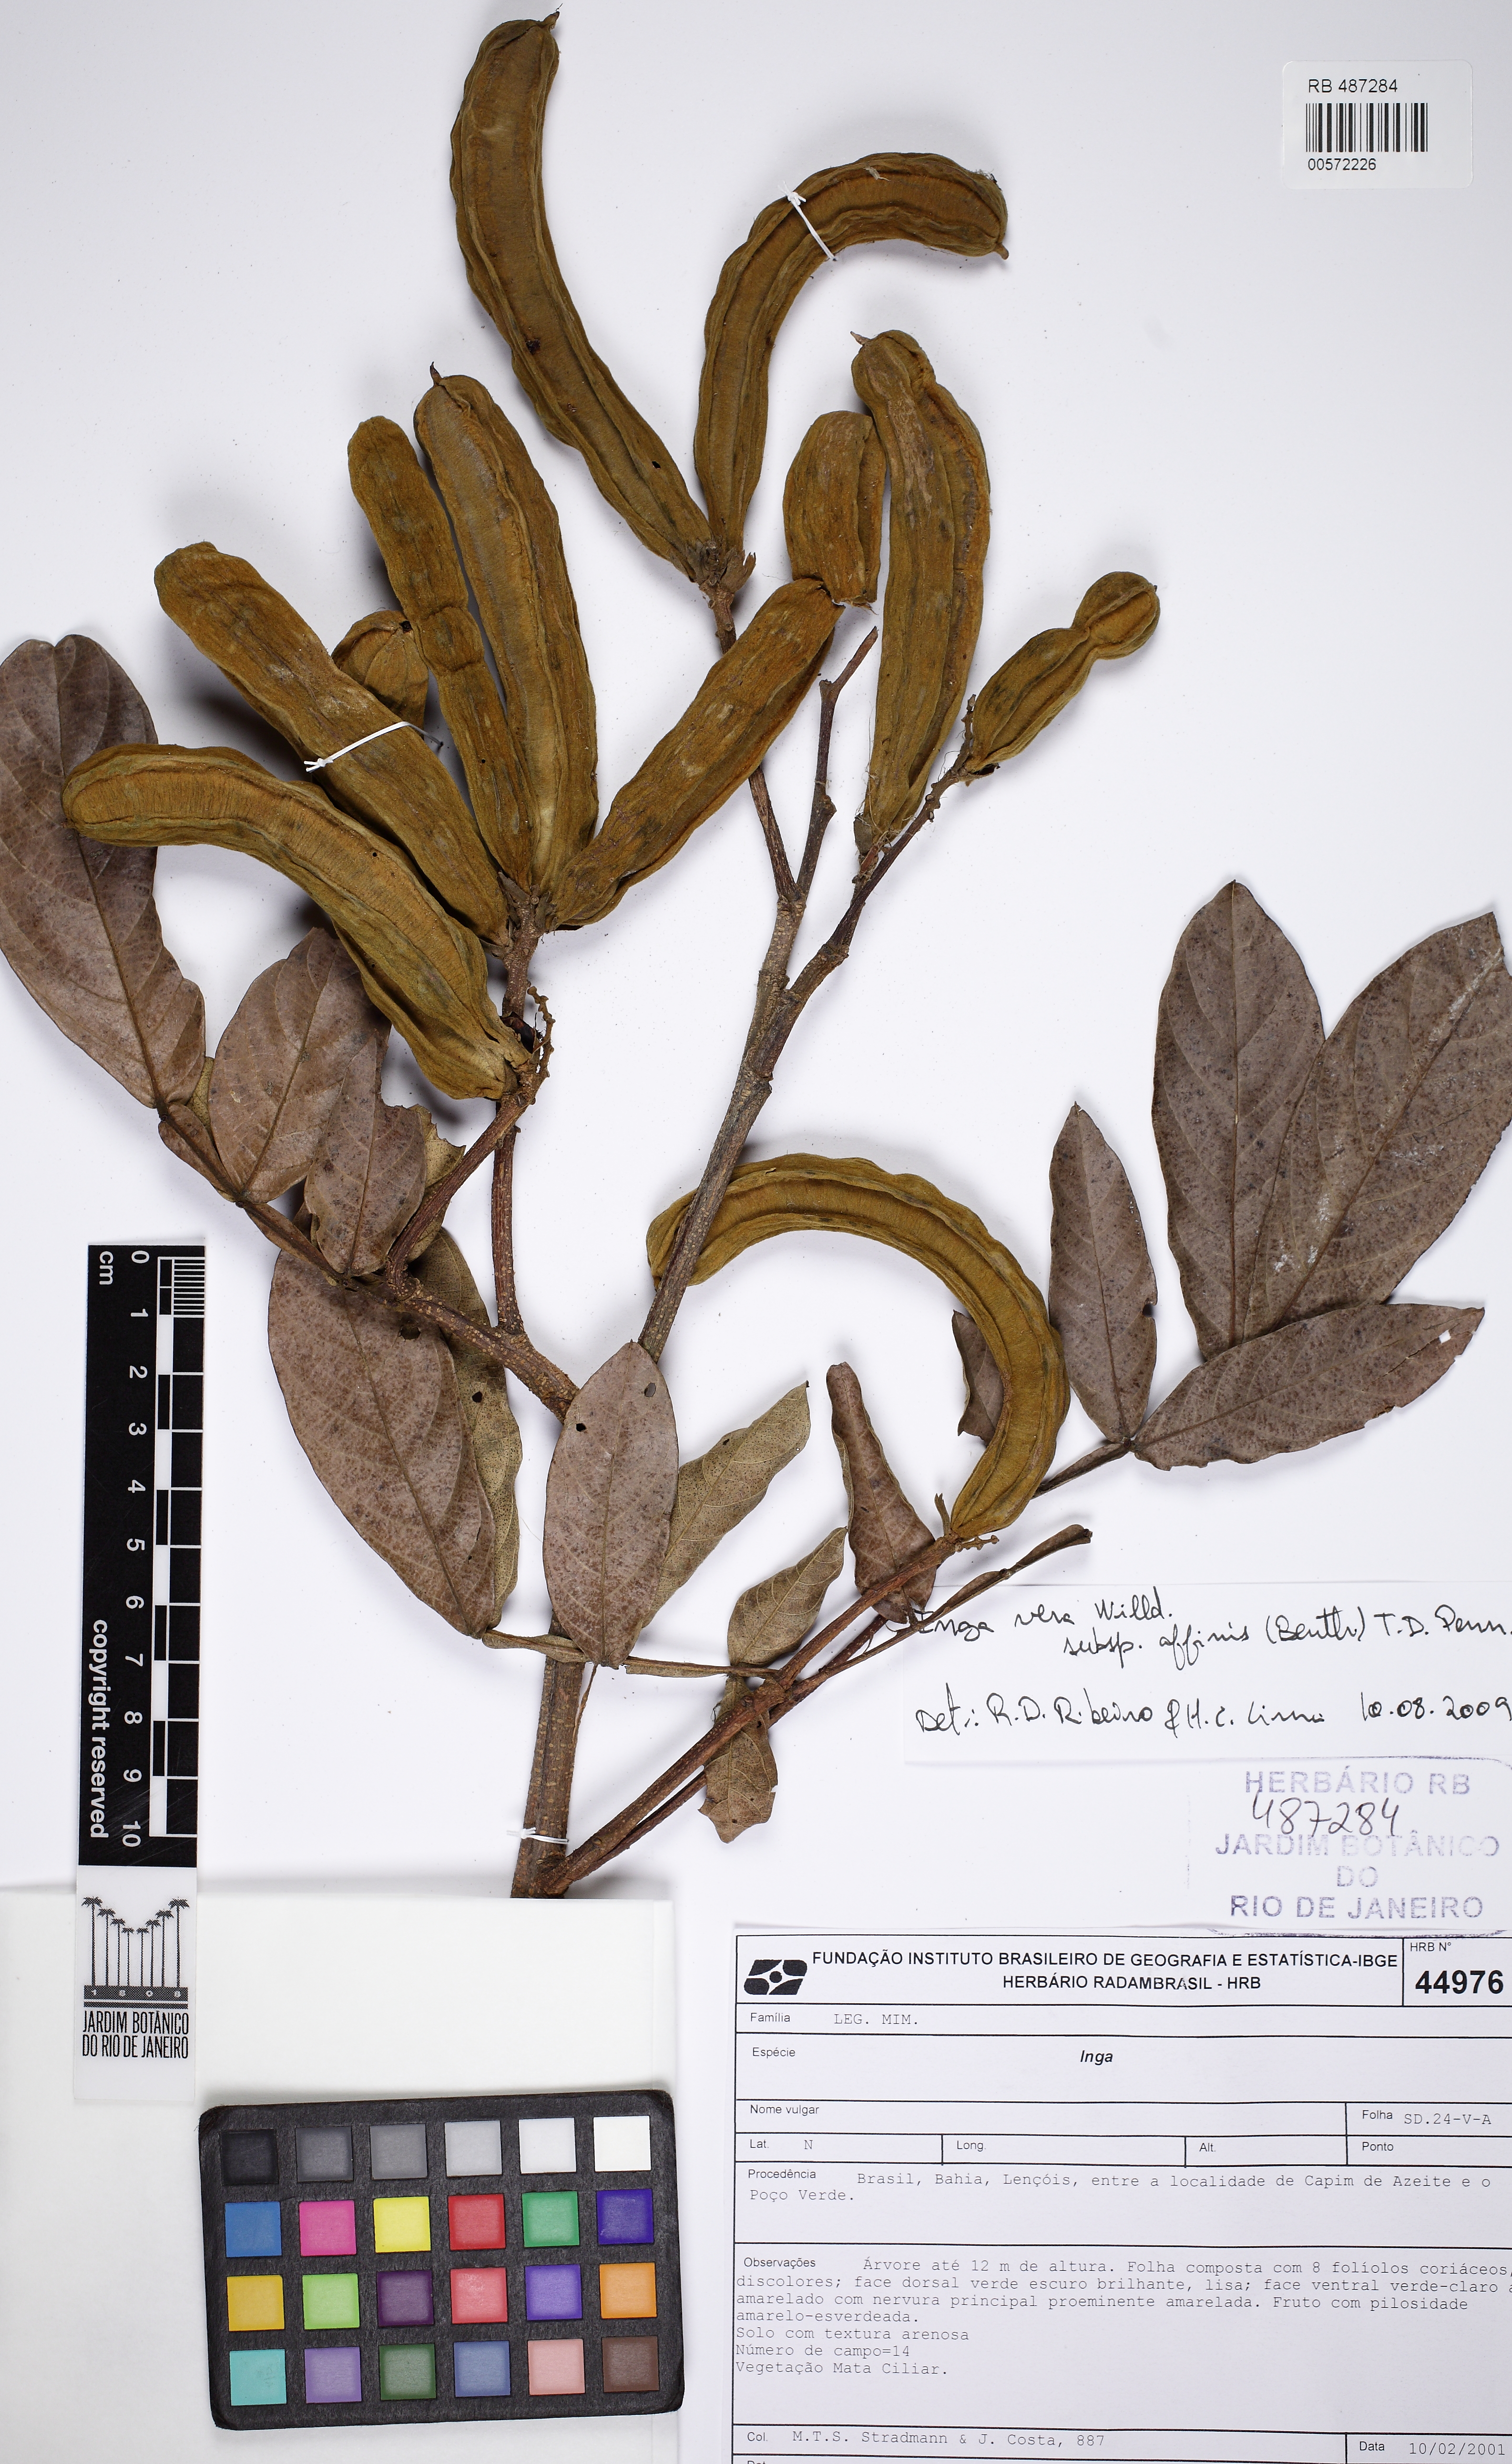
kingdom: Plantae
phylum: Tracheophyta
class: Magnoliopsida
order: Fabales
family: Fabaceae
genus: Inga
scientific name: Inga affinis
